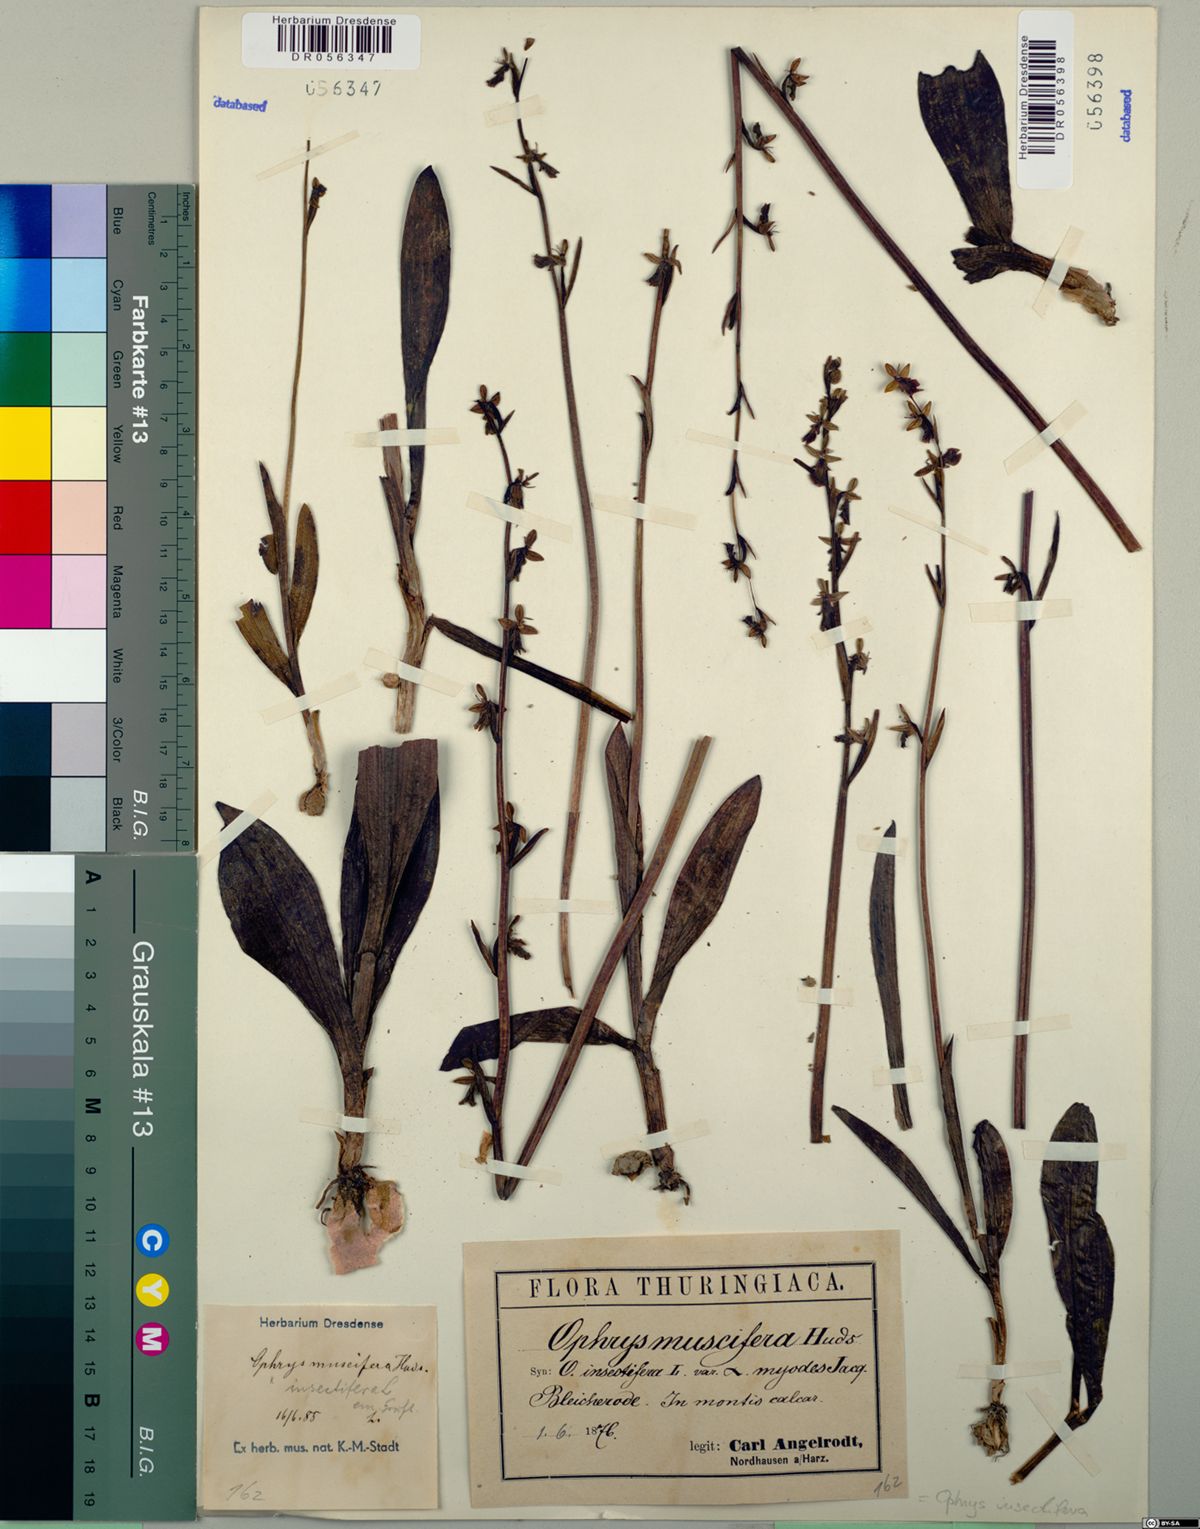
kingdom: Plantae
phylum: Tracheophyta
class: Liliopsida
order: Asparagales
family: Orchidaceae
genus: Ophrys
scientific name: Ophrys insectifera
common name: Fly orchid
